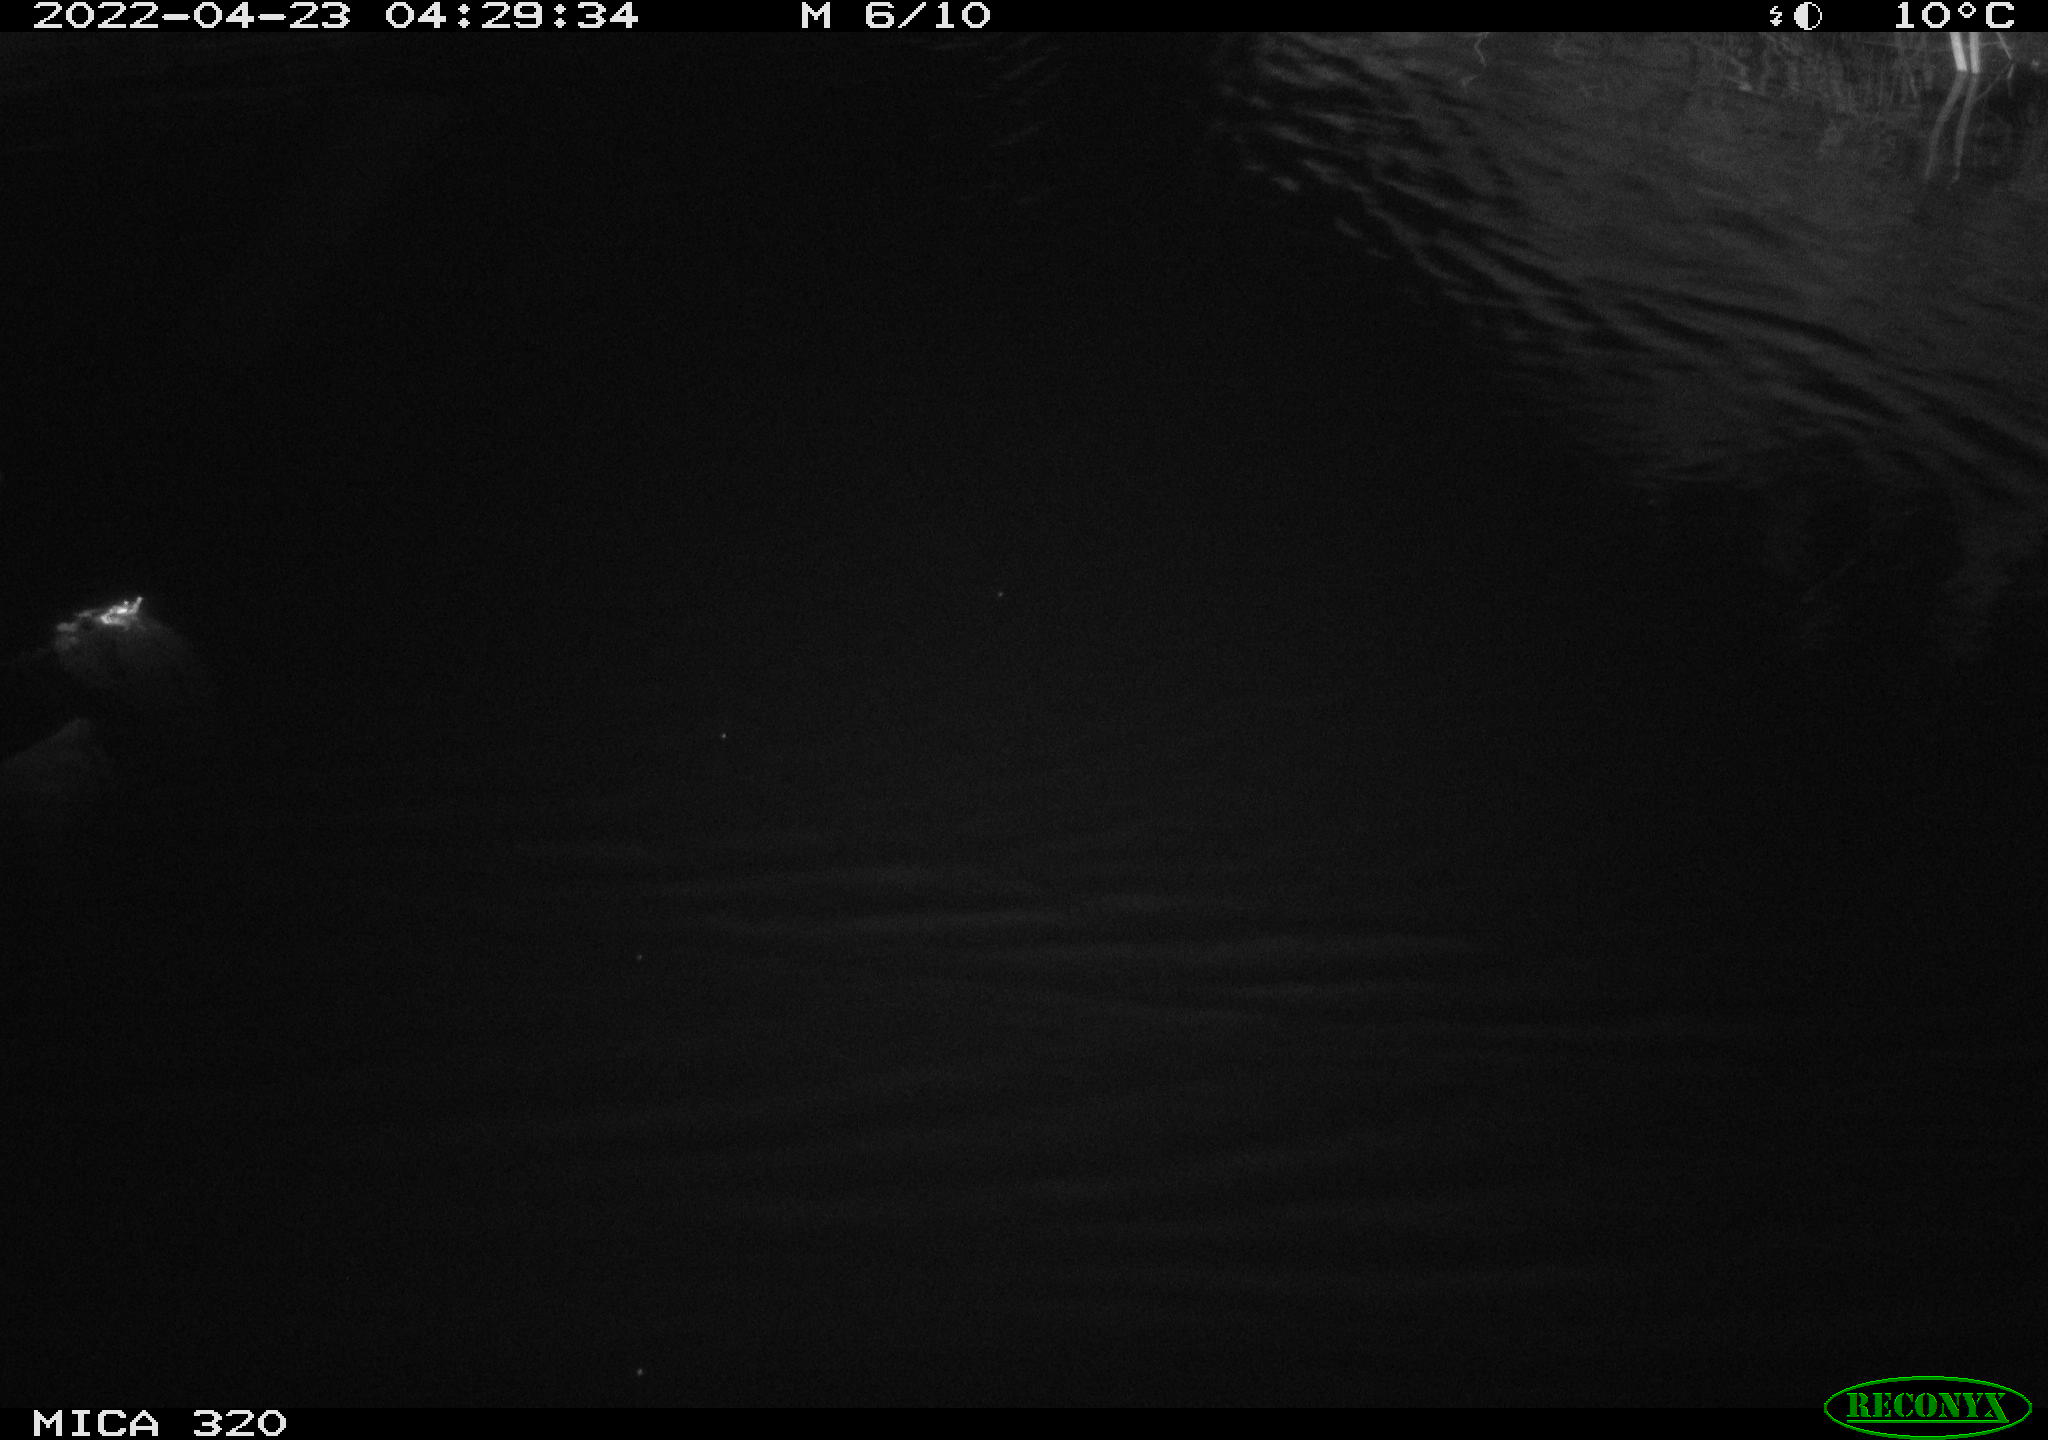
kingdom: Animalia
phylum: Chordata
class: Aves
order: Anseriformes
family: Anatidae
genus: Anas
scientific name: Anas platyrhynchos
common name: Mallard
